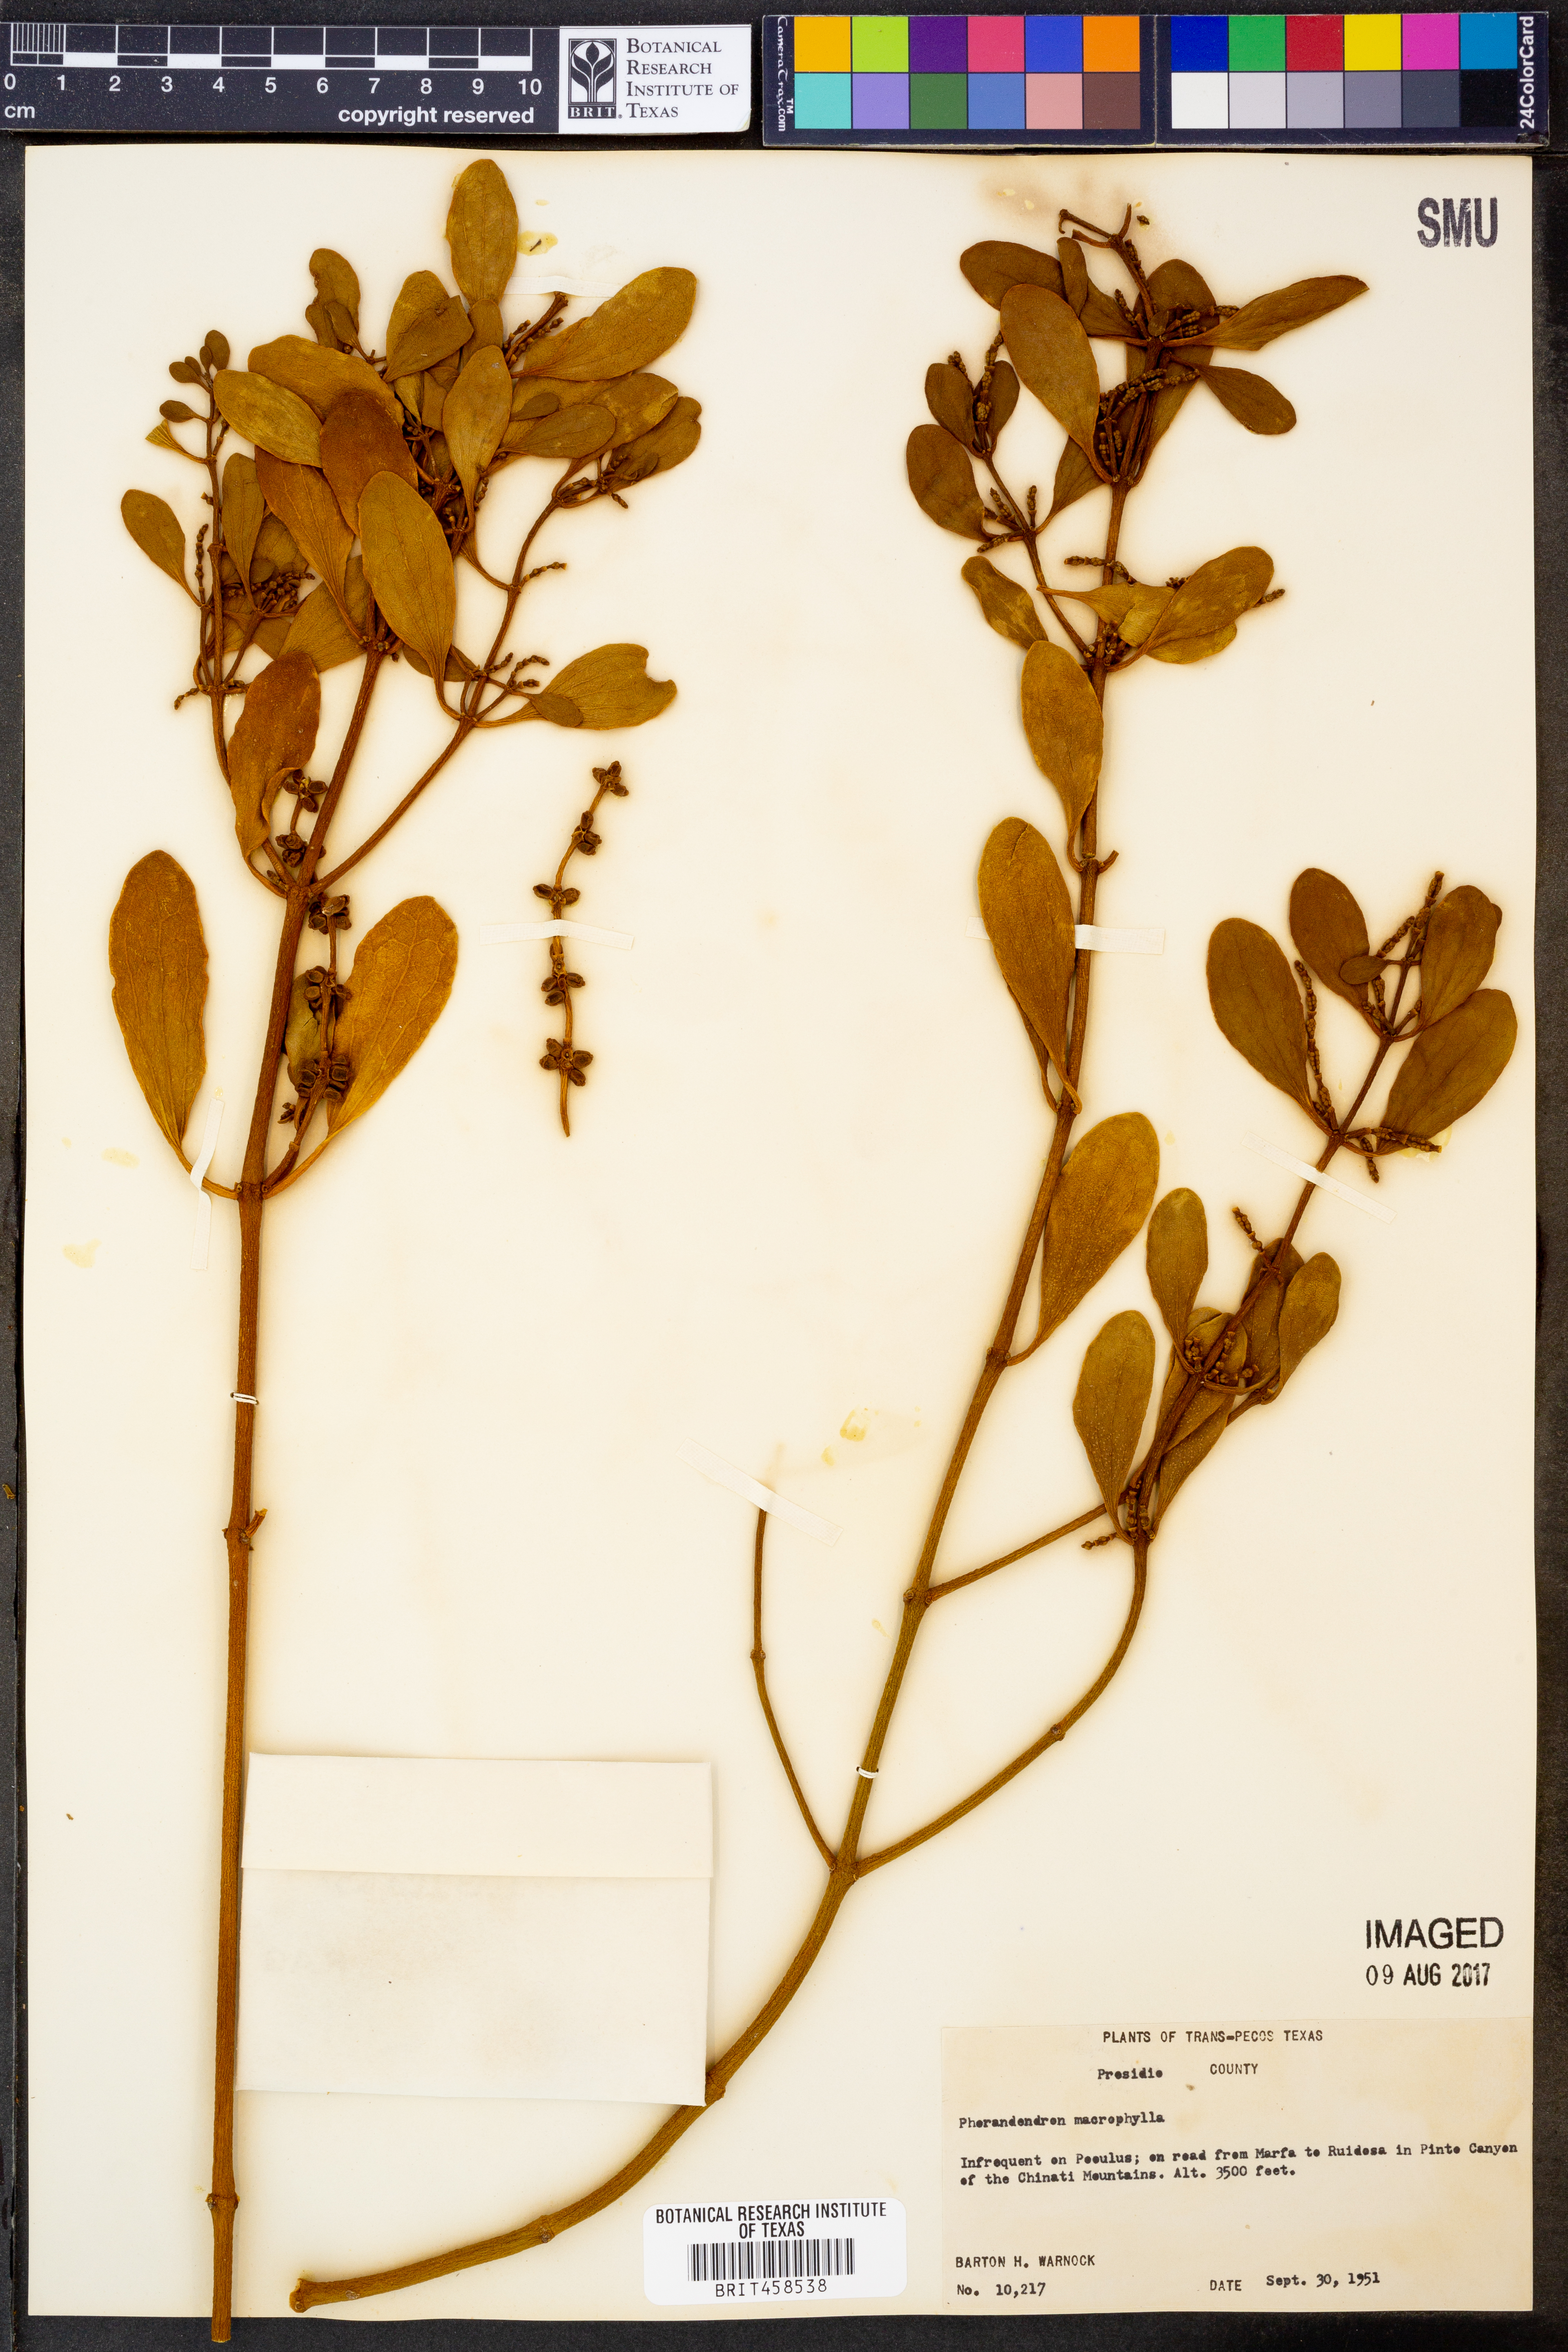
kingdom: Plantae
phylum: Tracheophyta
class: Magnoliopsida
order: Santalales
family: Viscaceae
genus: Phoradendron
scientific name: Phoradendron leucarpum
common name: Pacific mistletoe
